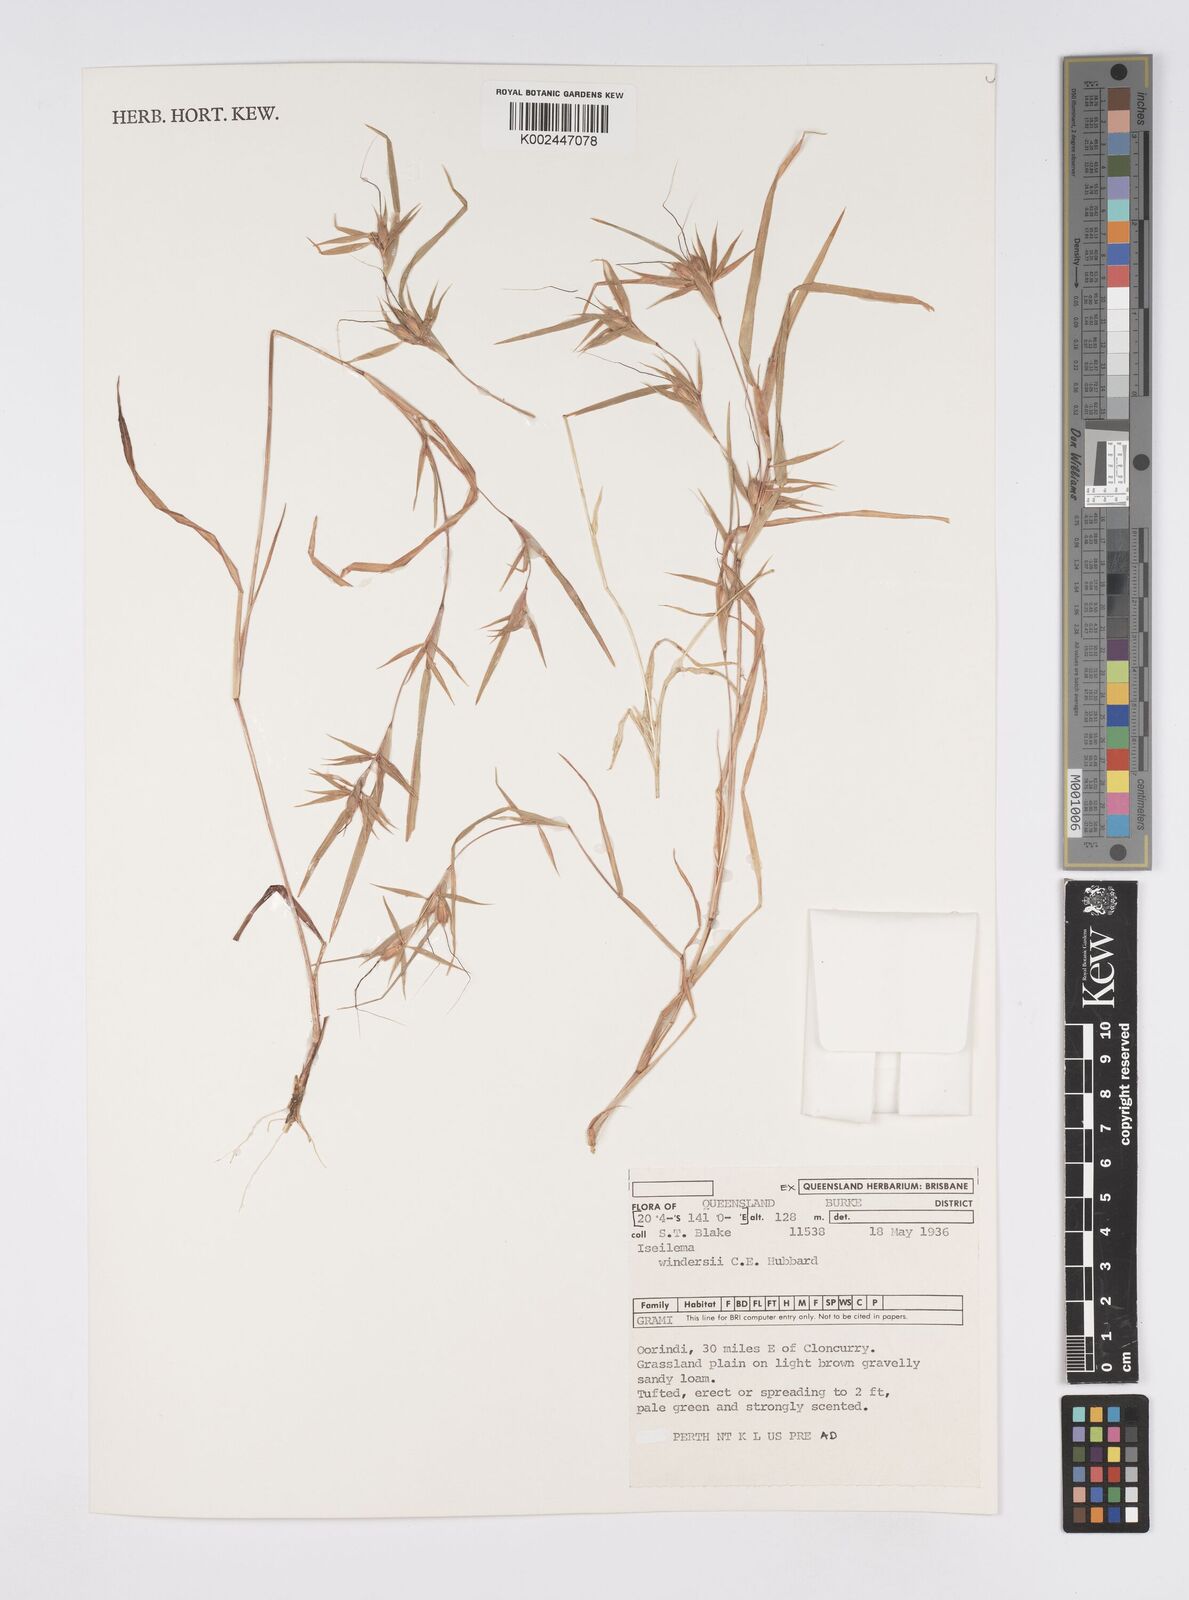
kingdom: Plantae
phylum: Tracheophyta
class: Liliopsida
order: Poales
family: Poaceae
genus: Iseilema
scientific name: Iseilema windersii
